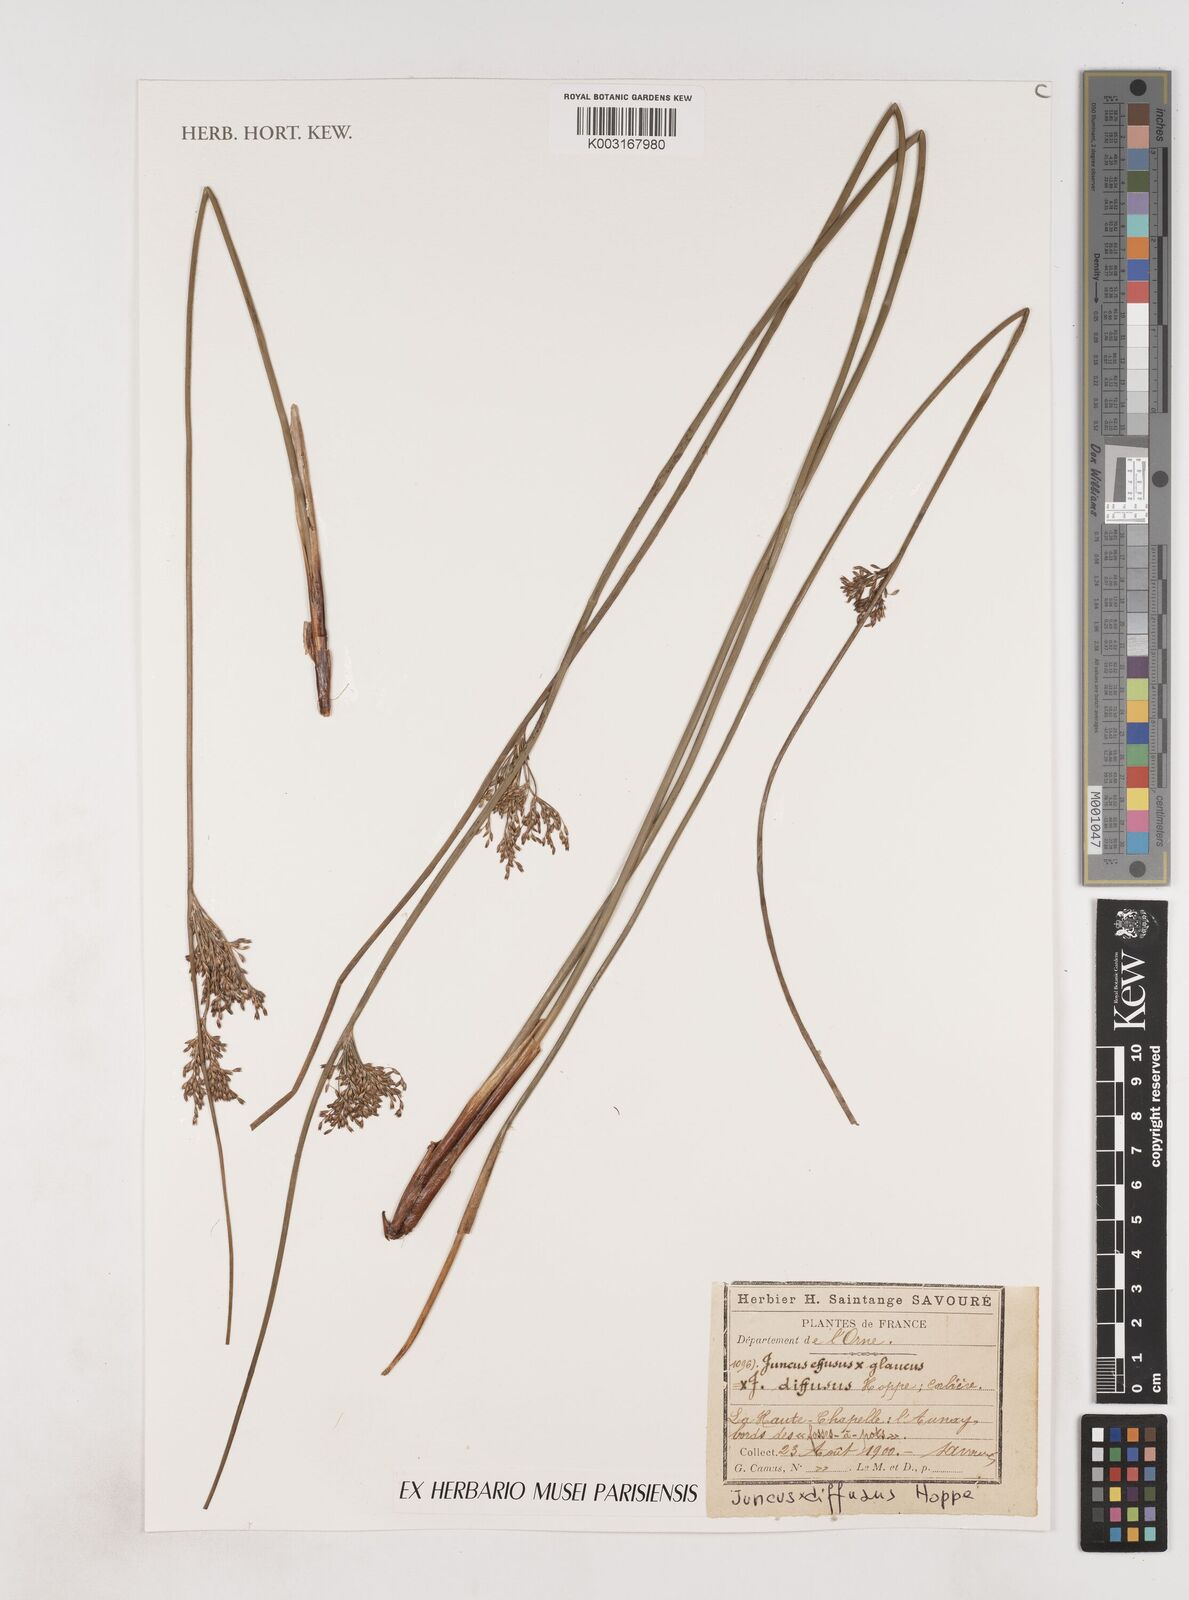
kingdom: Plantae
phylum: Tracheophyta
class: Liliopsida
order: Poales
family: Juncaceae
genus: Juncus
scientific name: Juncus effusus
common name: Soft rush
